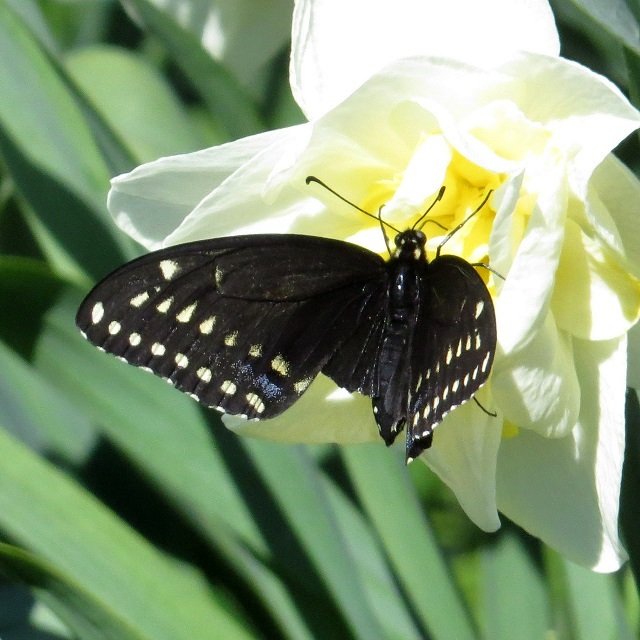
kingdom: Animalia
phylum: Arthropoda
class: Insecta
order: Lepidoptera
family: Papilionidae
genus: Papilio
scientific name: Papilio polyxenes
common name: Black Swallowtail
